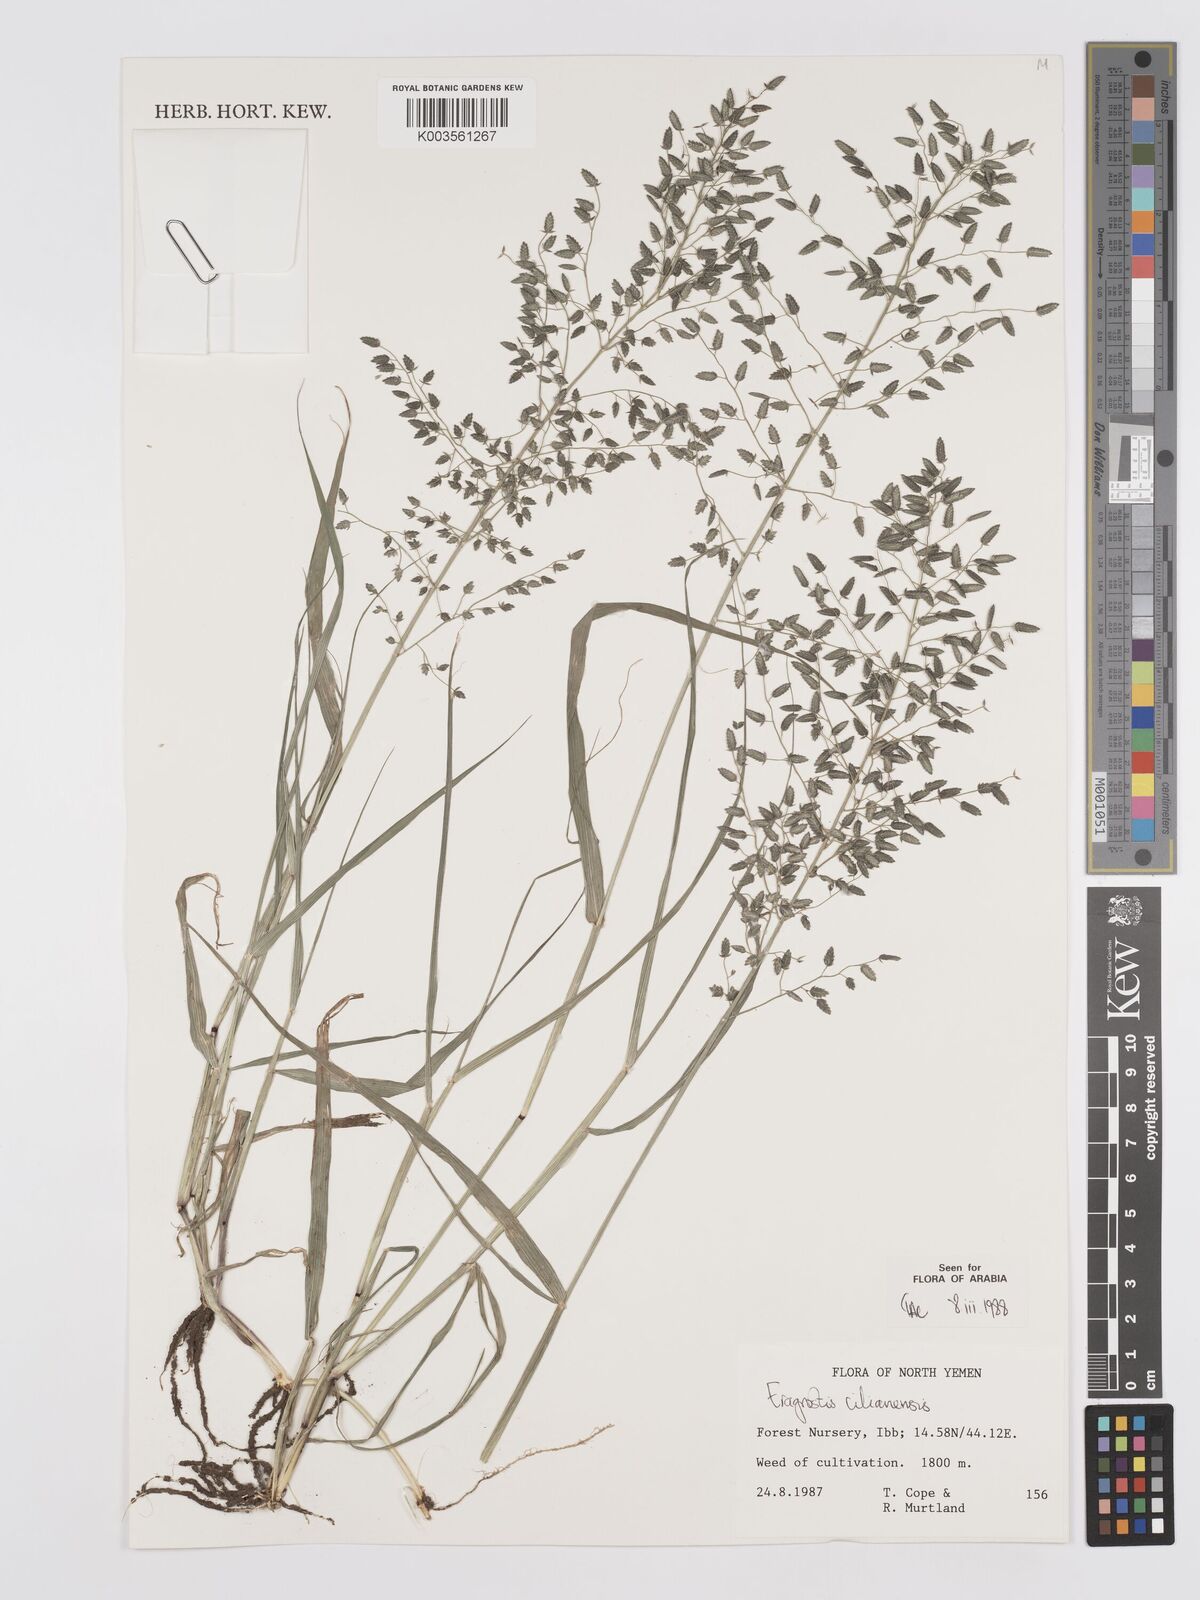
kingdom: Plantae
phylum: Tracheophyta
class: Liliopsida
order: Poales
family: Poaceae
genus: Eragrostis
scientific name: Eragrostis cilianensis
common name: Stinkgrass
